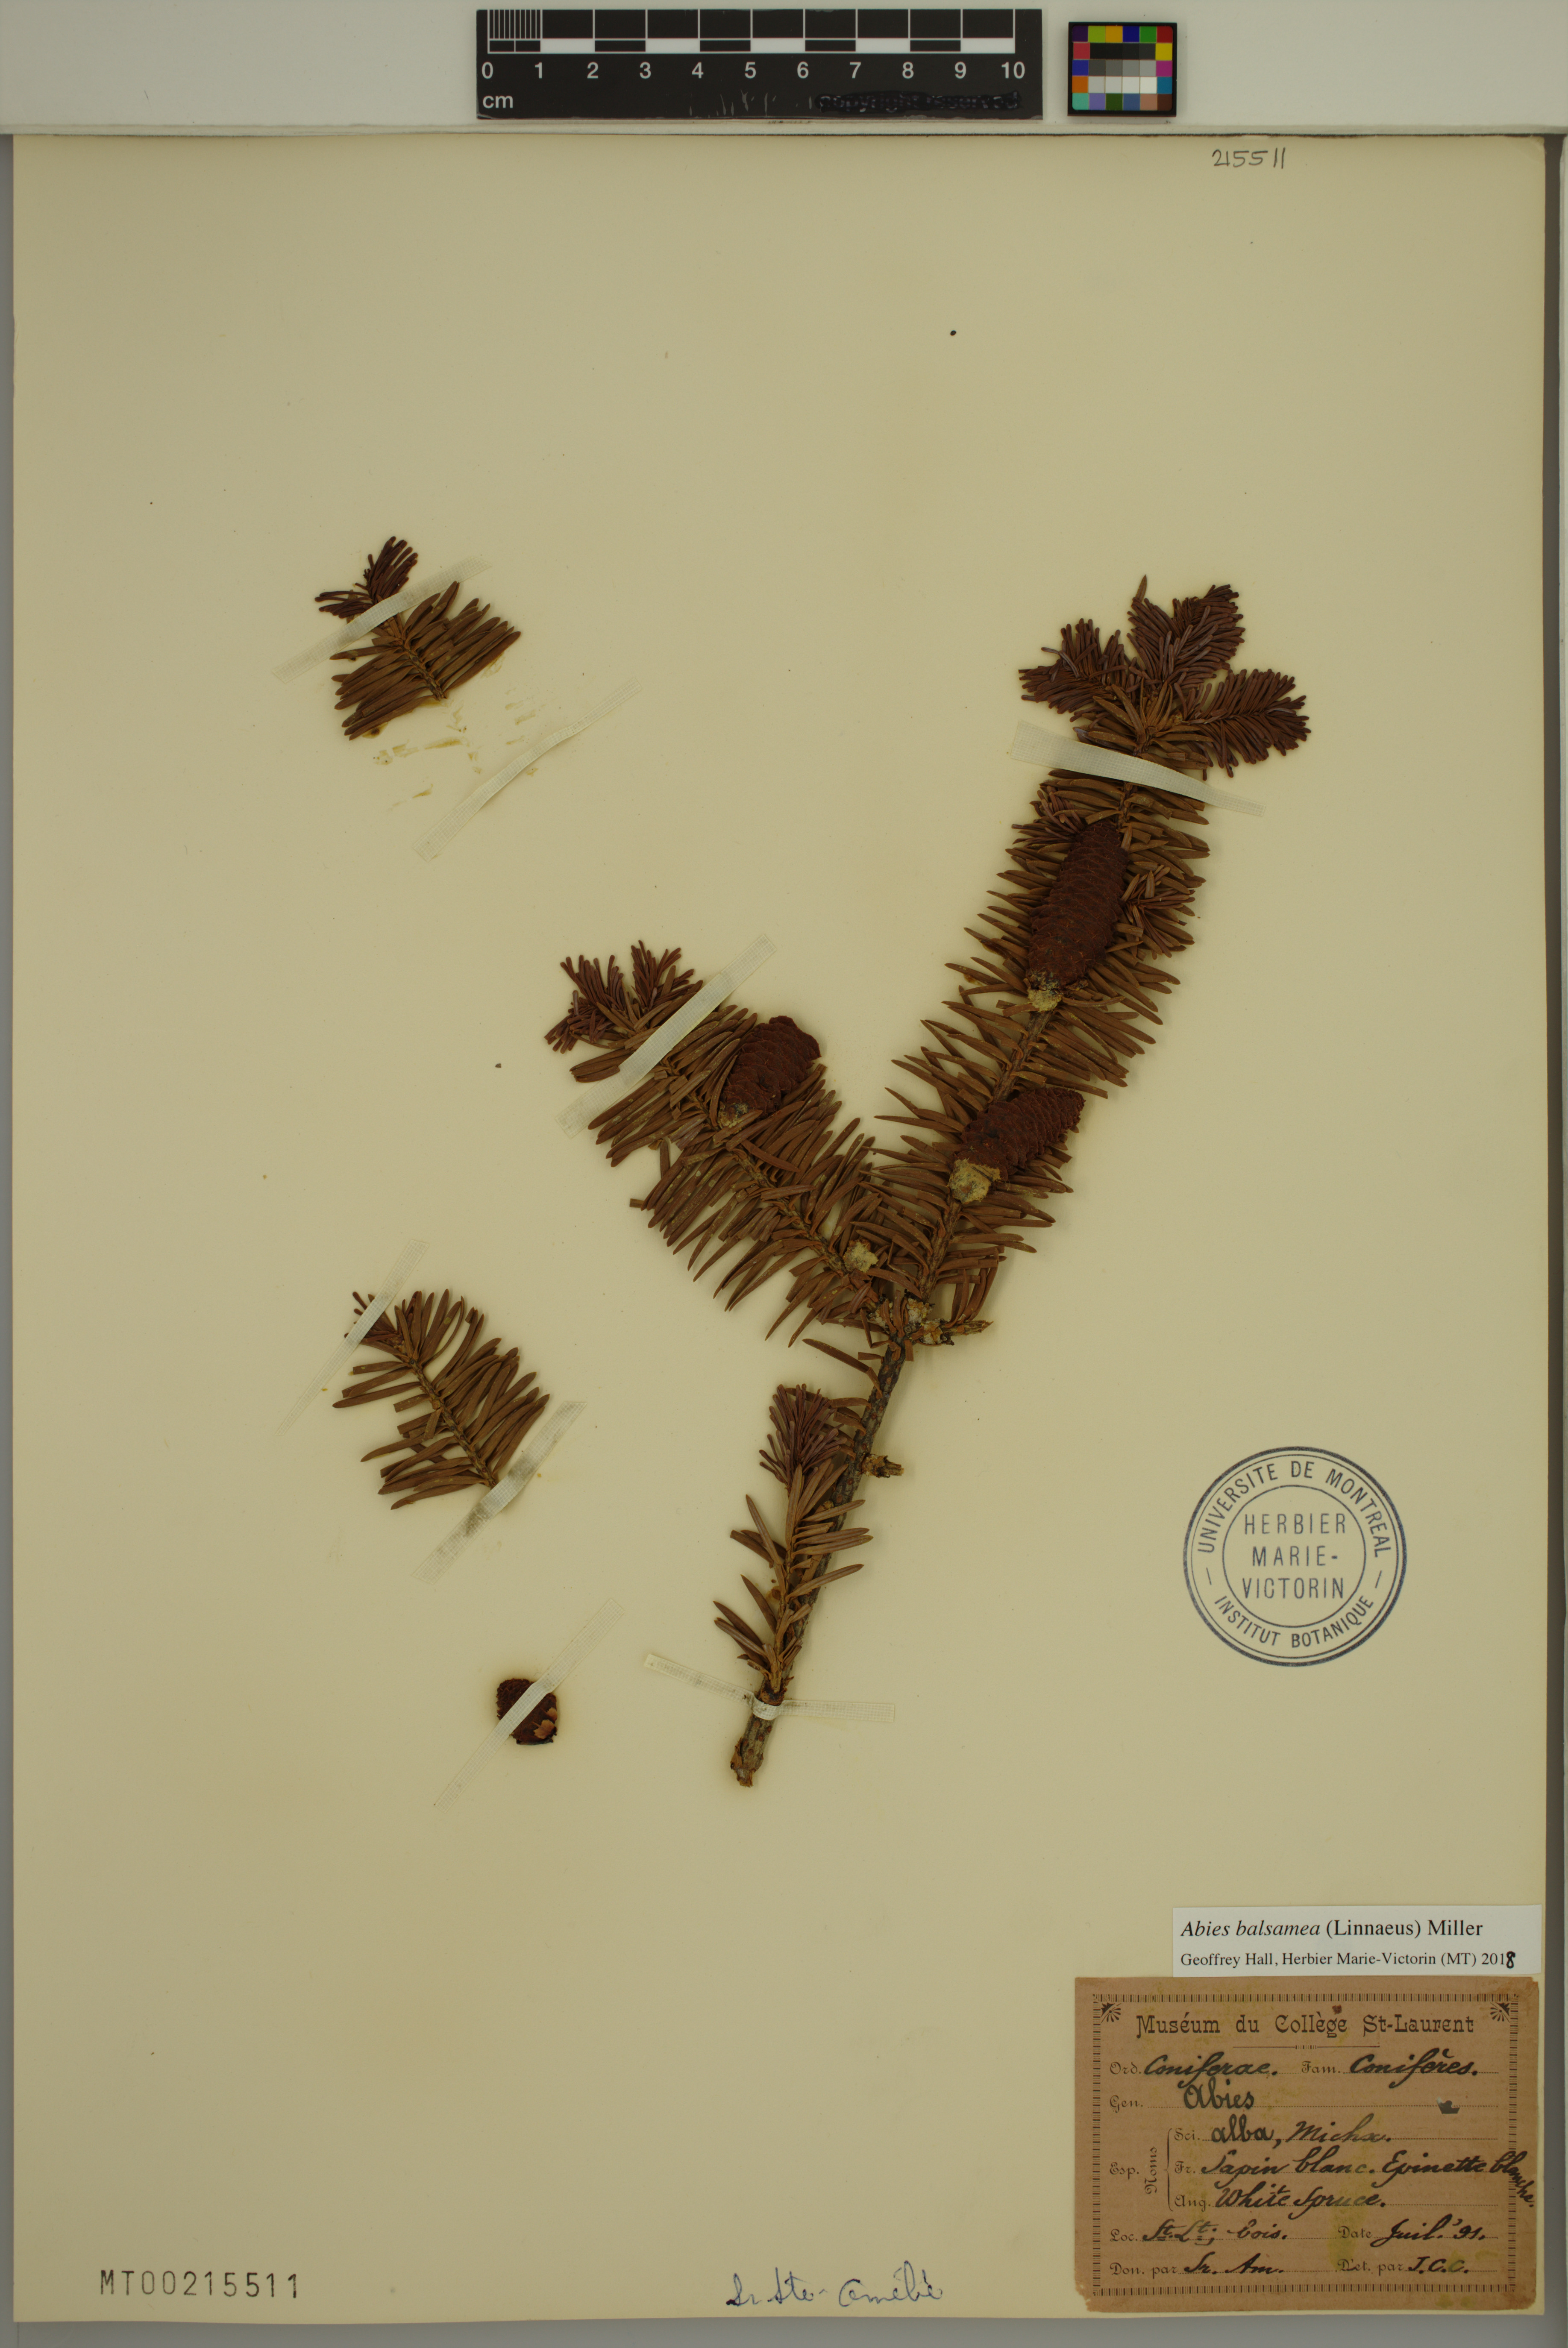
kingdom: Plantae
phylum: Tracheophyta
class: Pinopsida
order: Pinales
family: Pinaceae
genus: Abies
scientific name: Abies balsamea
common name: Balsam fir
